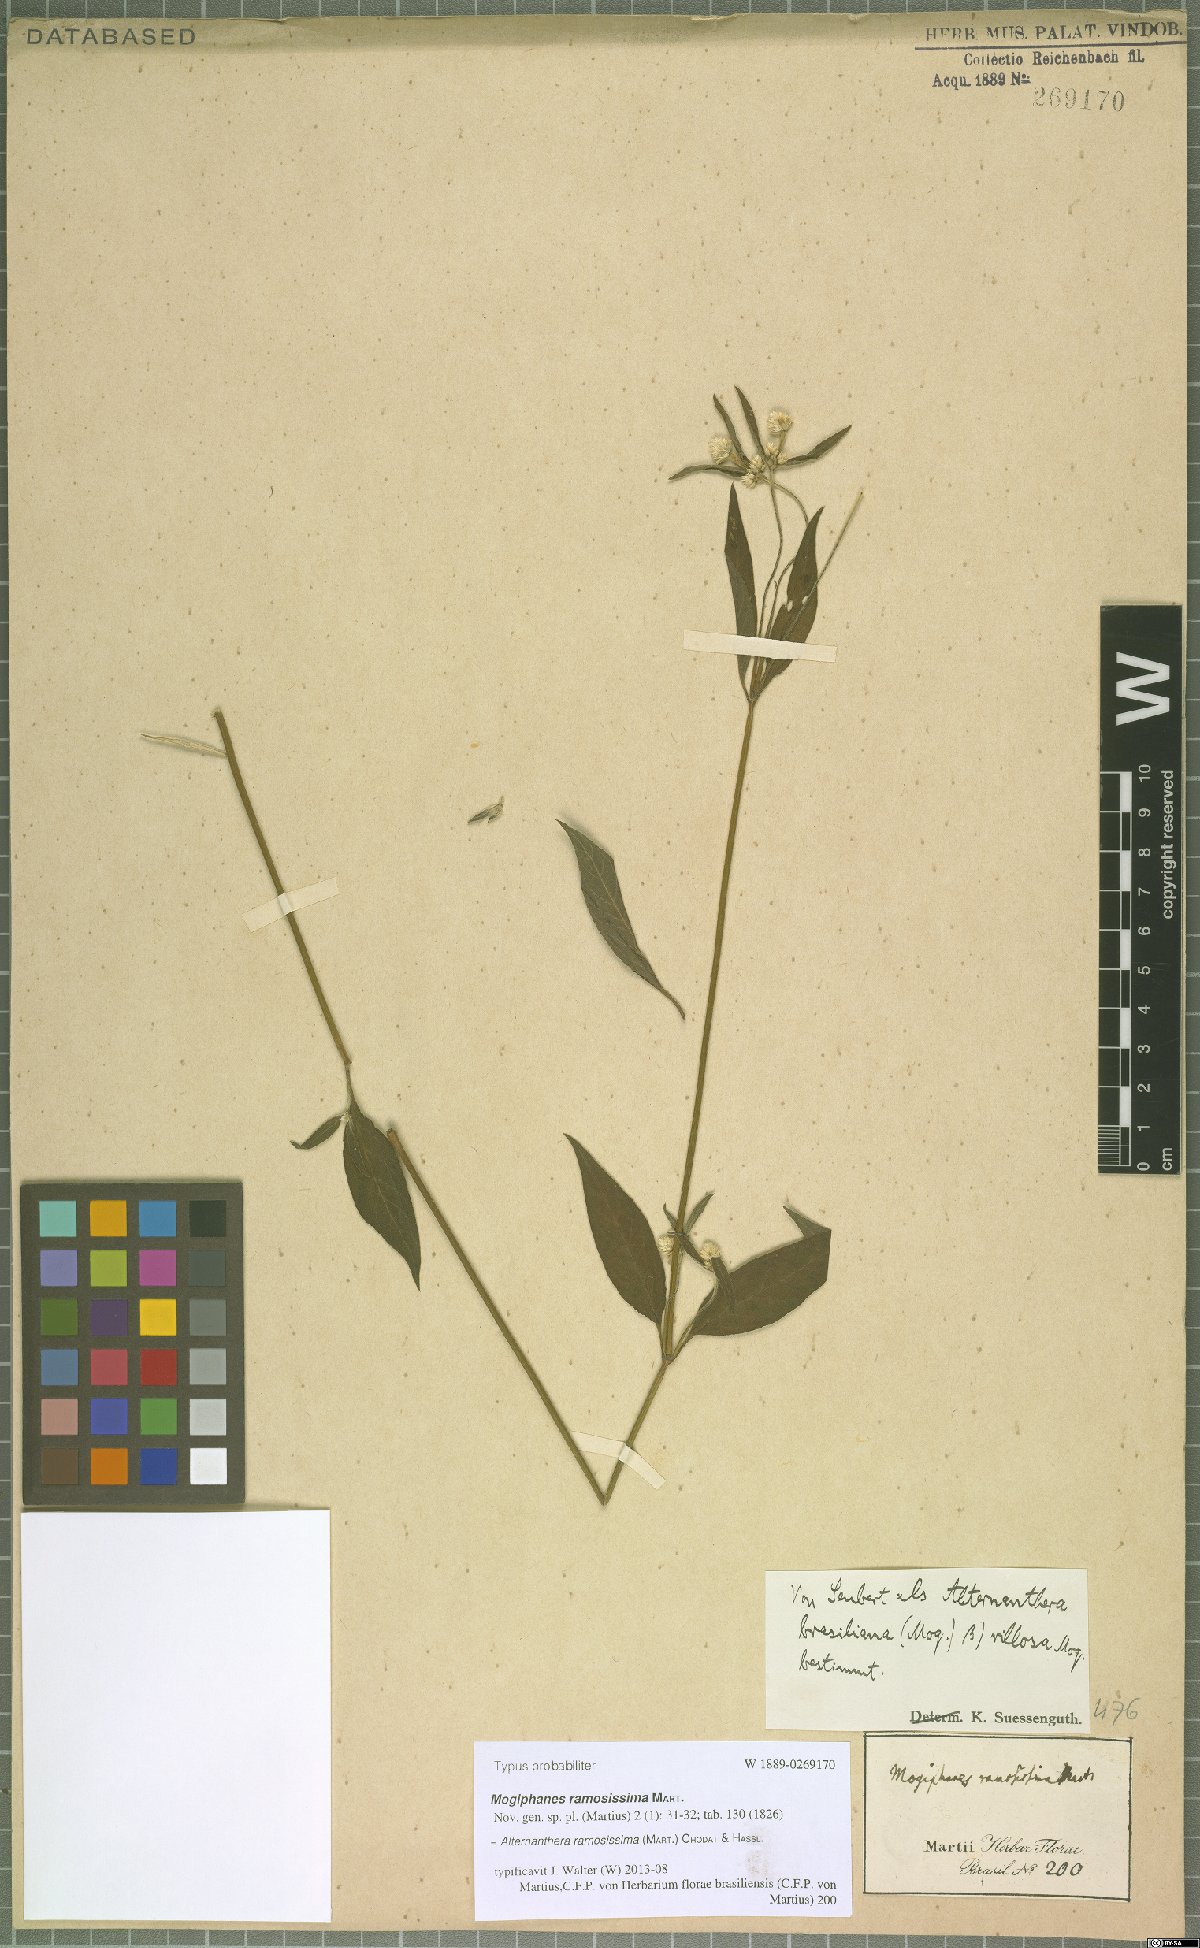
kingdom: Plantae
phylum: Tracheophyta
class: Magnoliopsida
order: Caryophyllales
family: Amaranthaceae
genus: Alternanthera
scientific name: Alternanthera ramosissima
